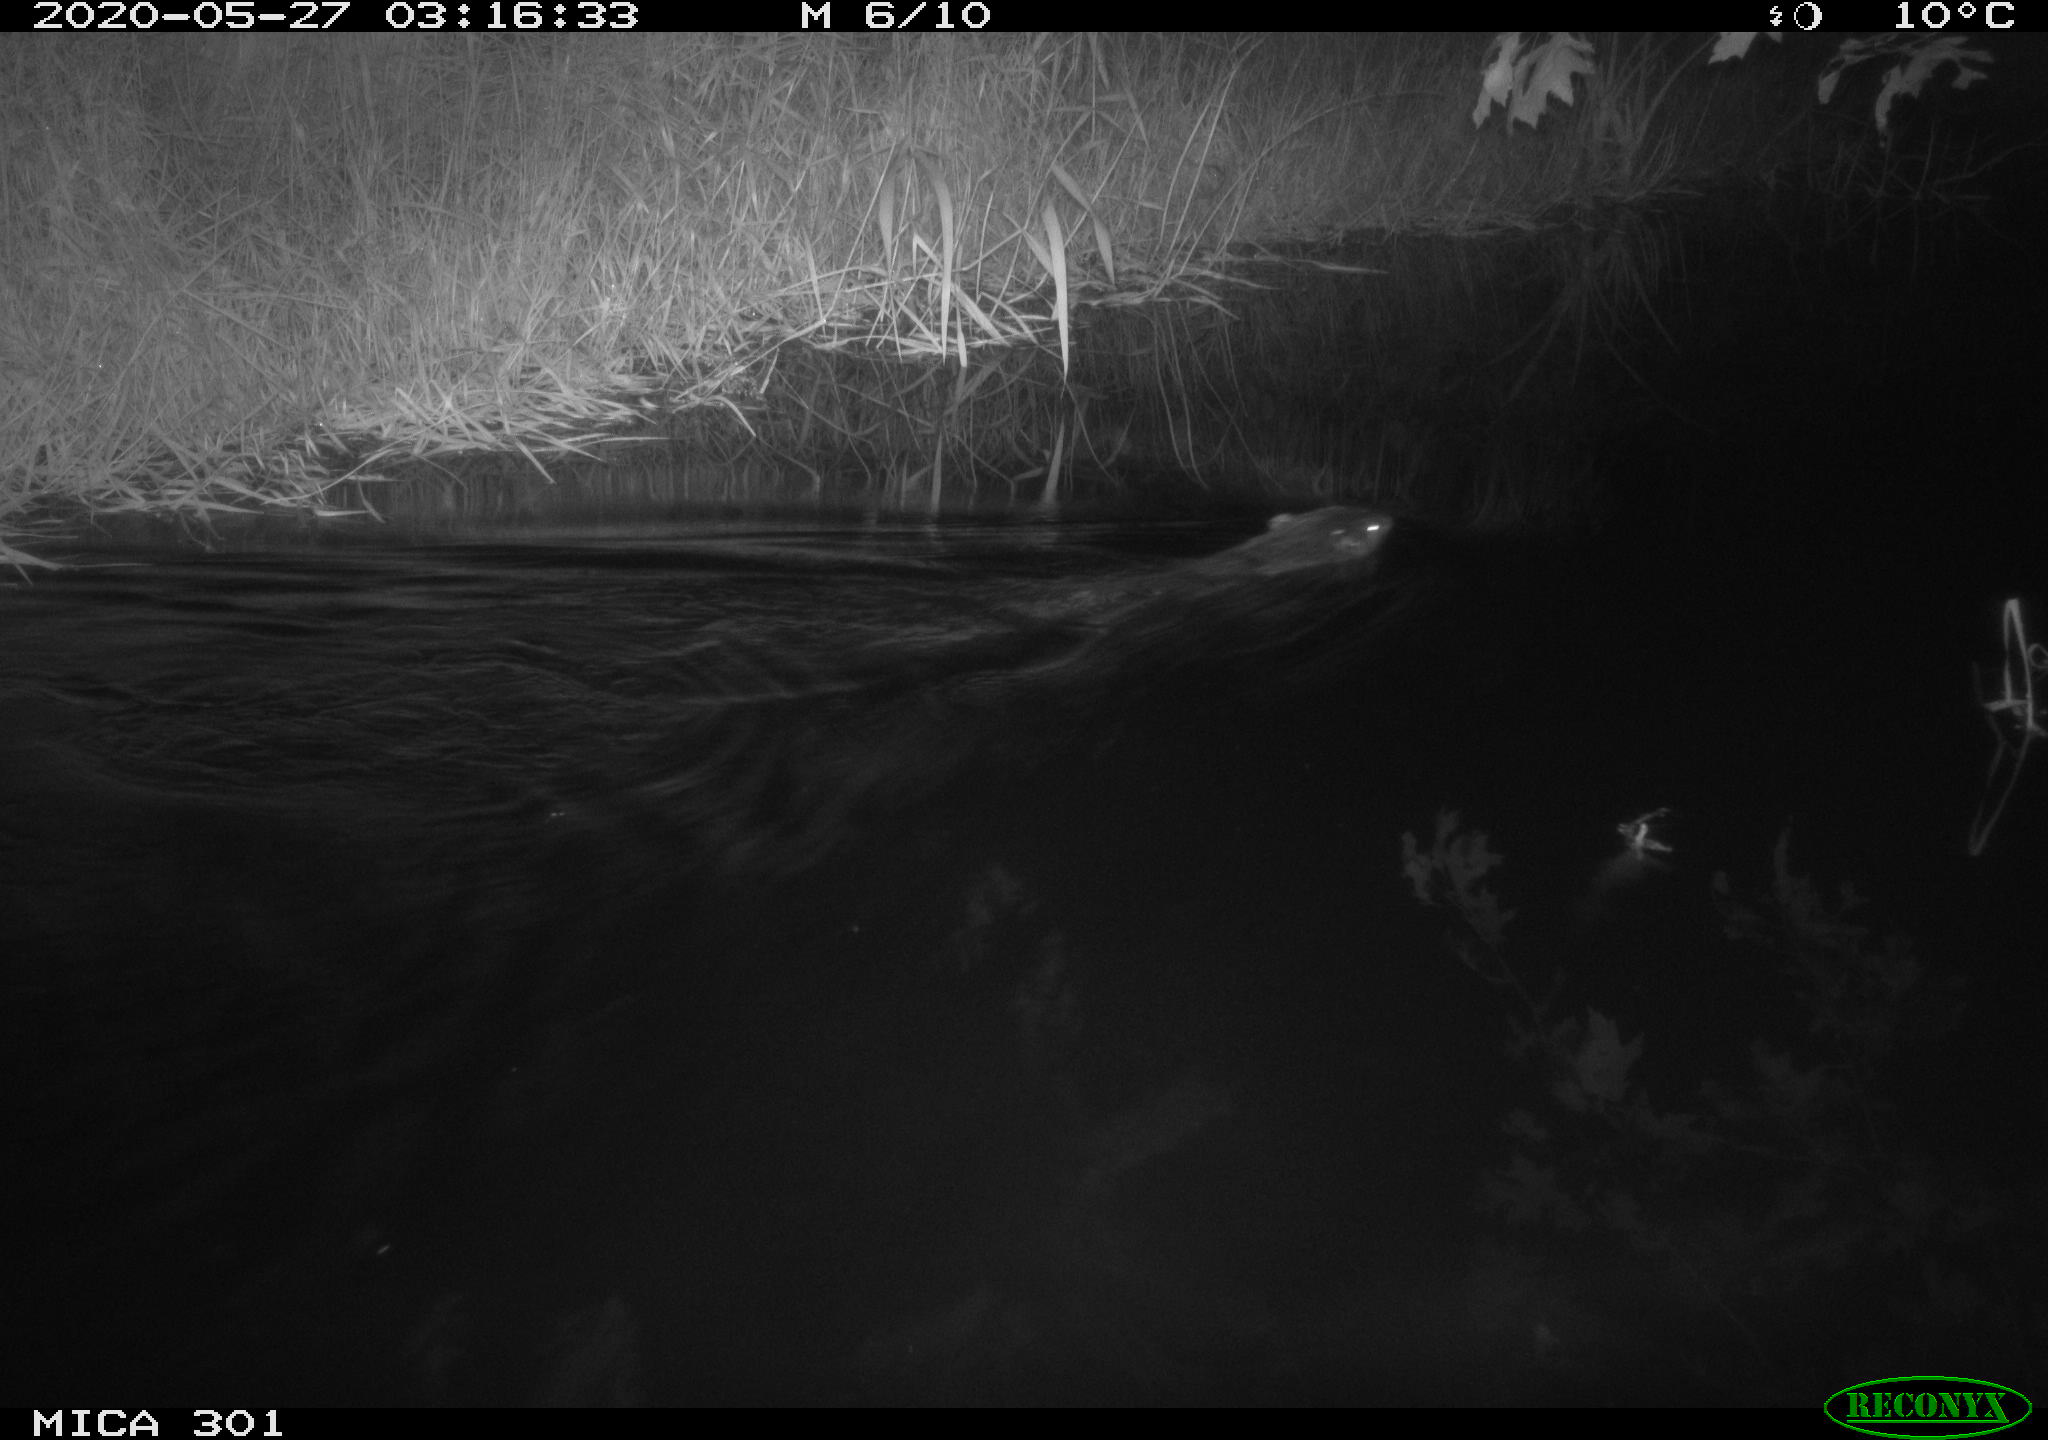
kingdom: Animalia
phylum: Chordata
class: Mammalia
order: Rodentia
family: Castoridae
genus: Castor
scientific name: Castor fiber
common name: Eurasian beaver
